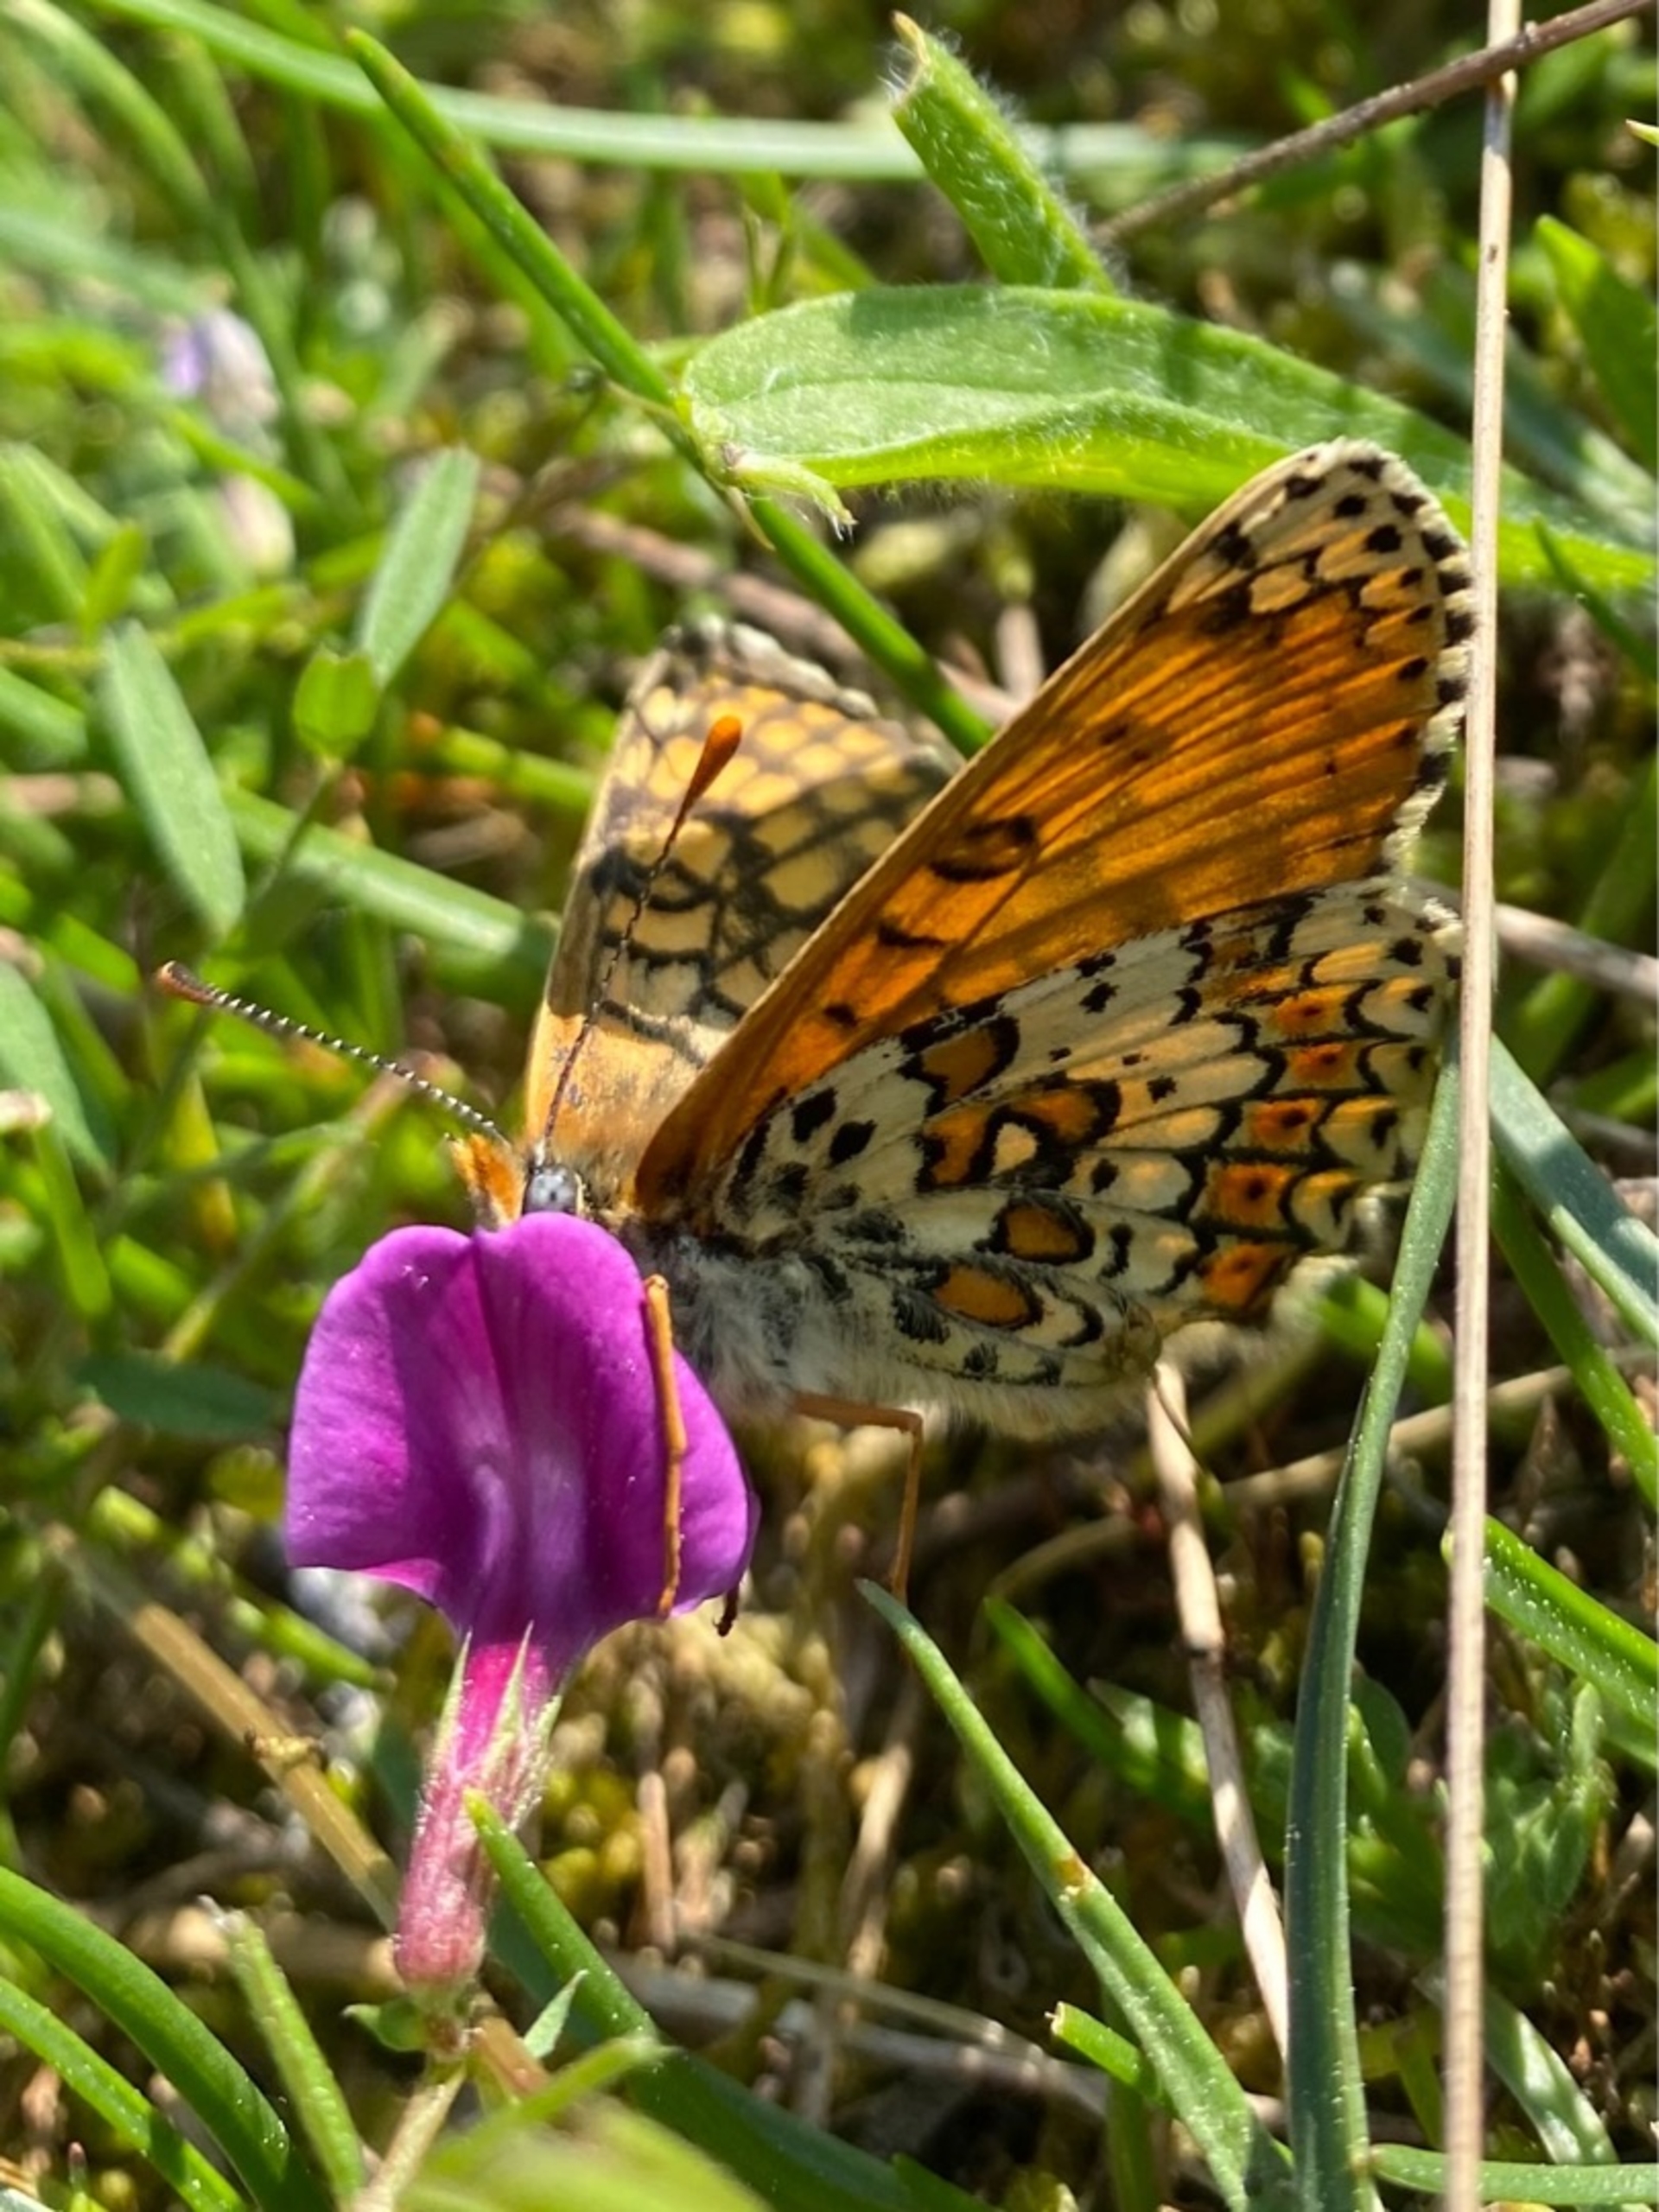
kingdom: Animalia
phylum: Arthropoda
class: Insecta
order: Lepidoptera
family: Nymphalidae
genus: Melitaea
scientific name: Melitaea cinxia
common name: Okkergul pletvinge
